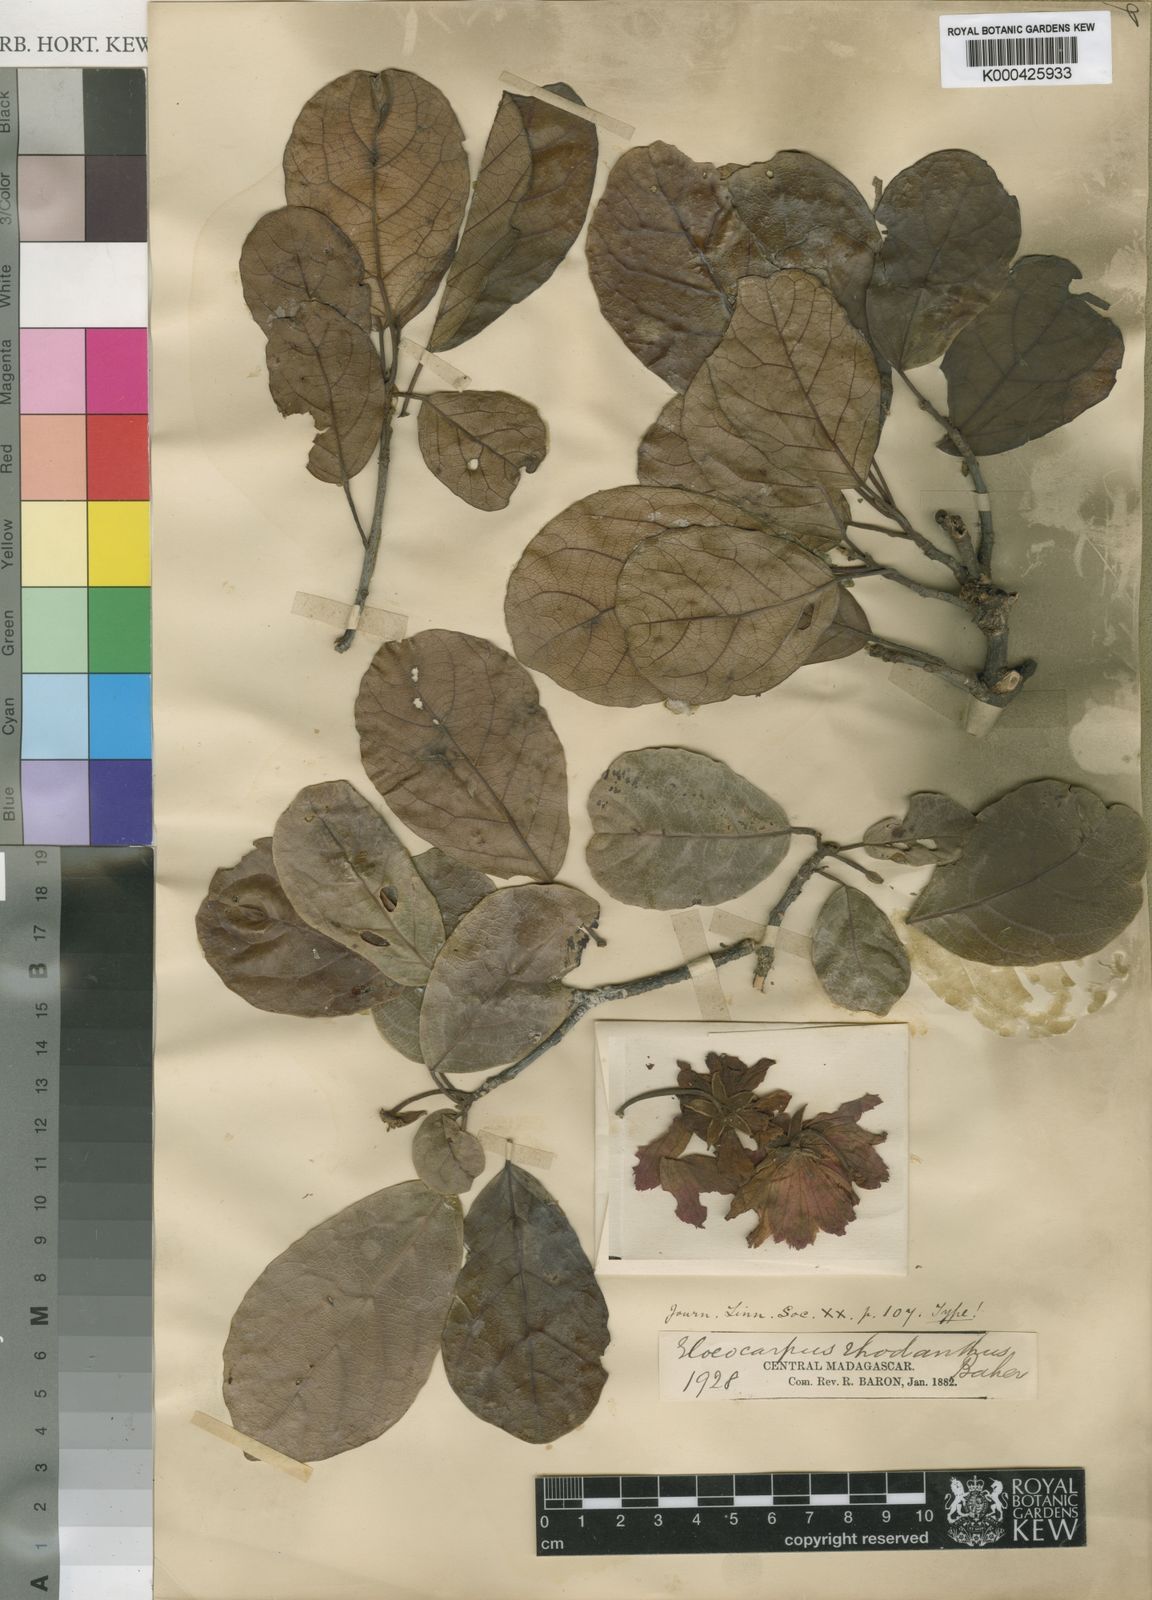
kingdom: Plantae
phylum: Tracheophyta
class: Magnoliopsida
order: Oxalidales
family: Elaeocarpaceae
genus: Sloanea
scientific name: Sloanea rhodantha
